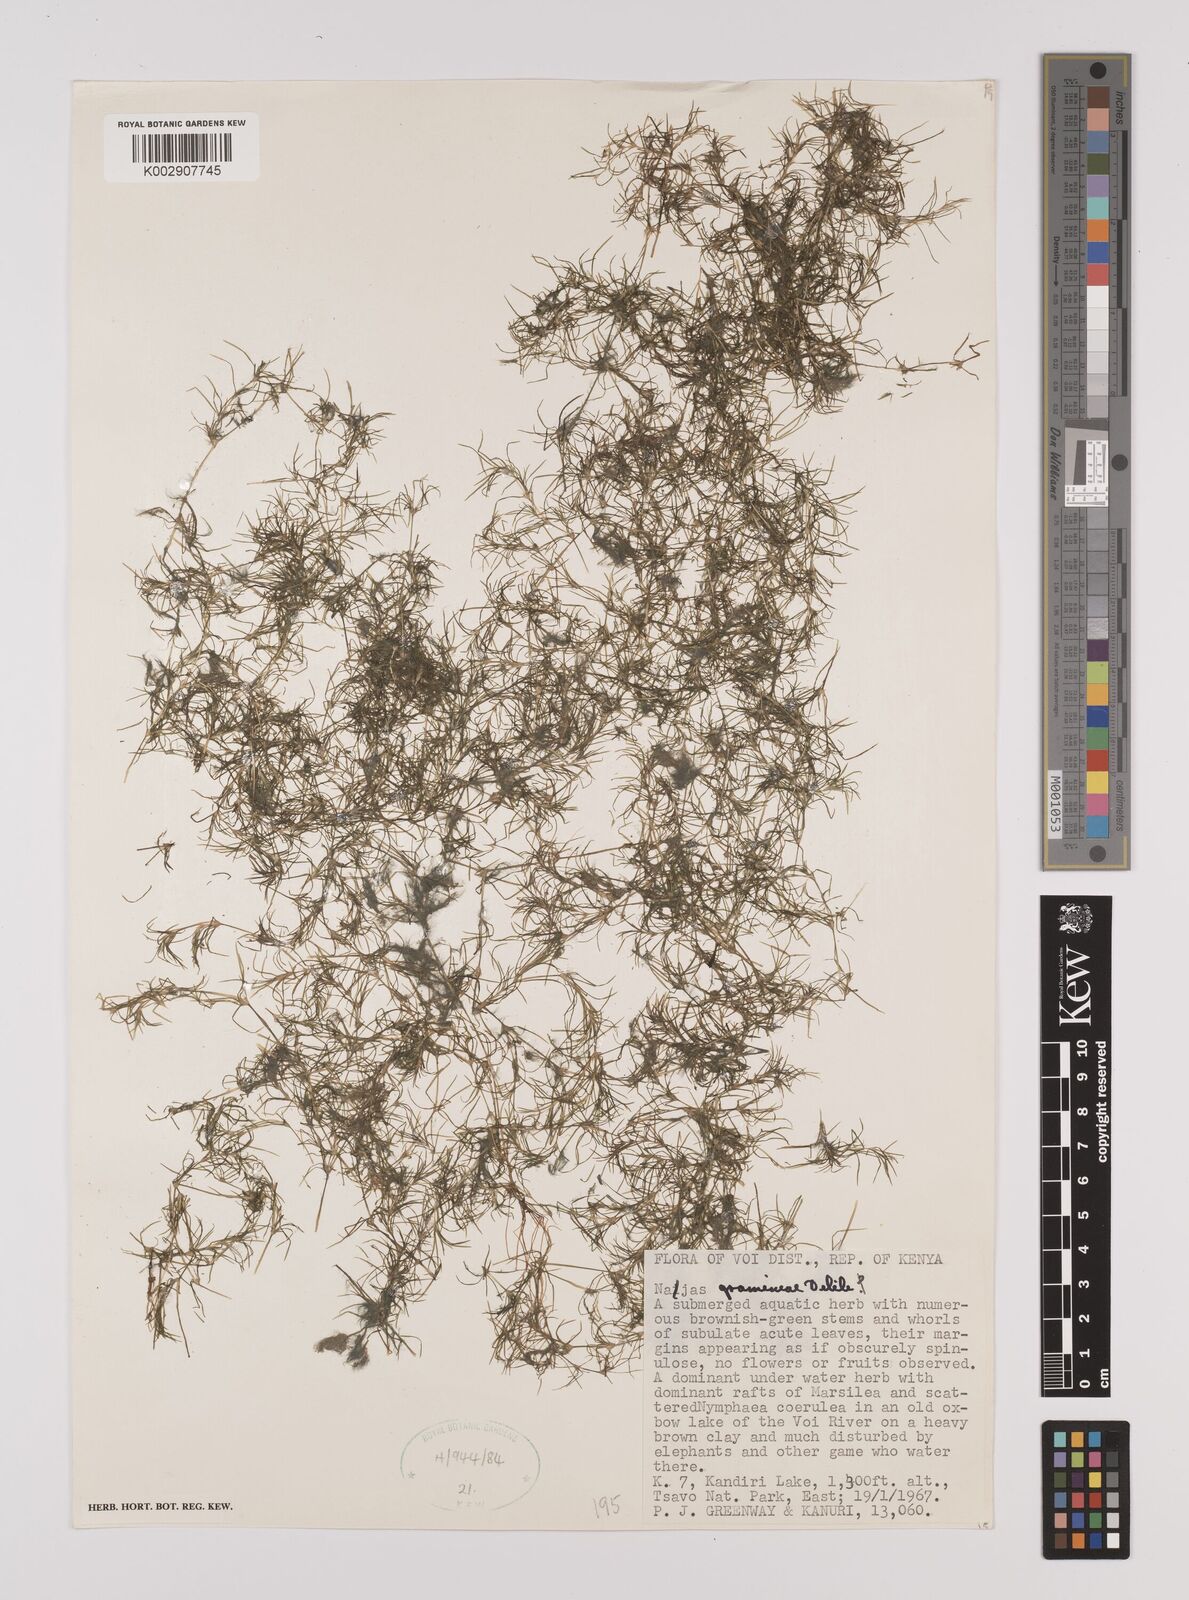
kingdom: Plantae
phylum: Tracheophyta
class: Liliopsida
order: Alismatales
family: Hydrocharitaceae
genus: Najas
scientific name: Najas graminea
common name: Ricefield waternymph
